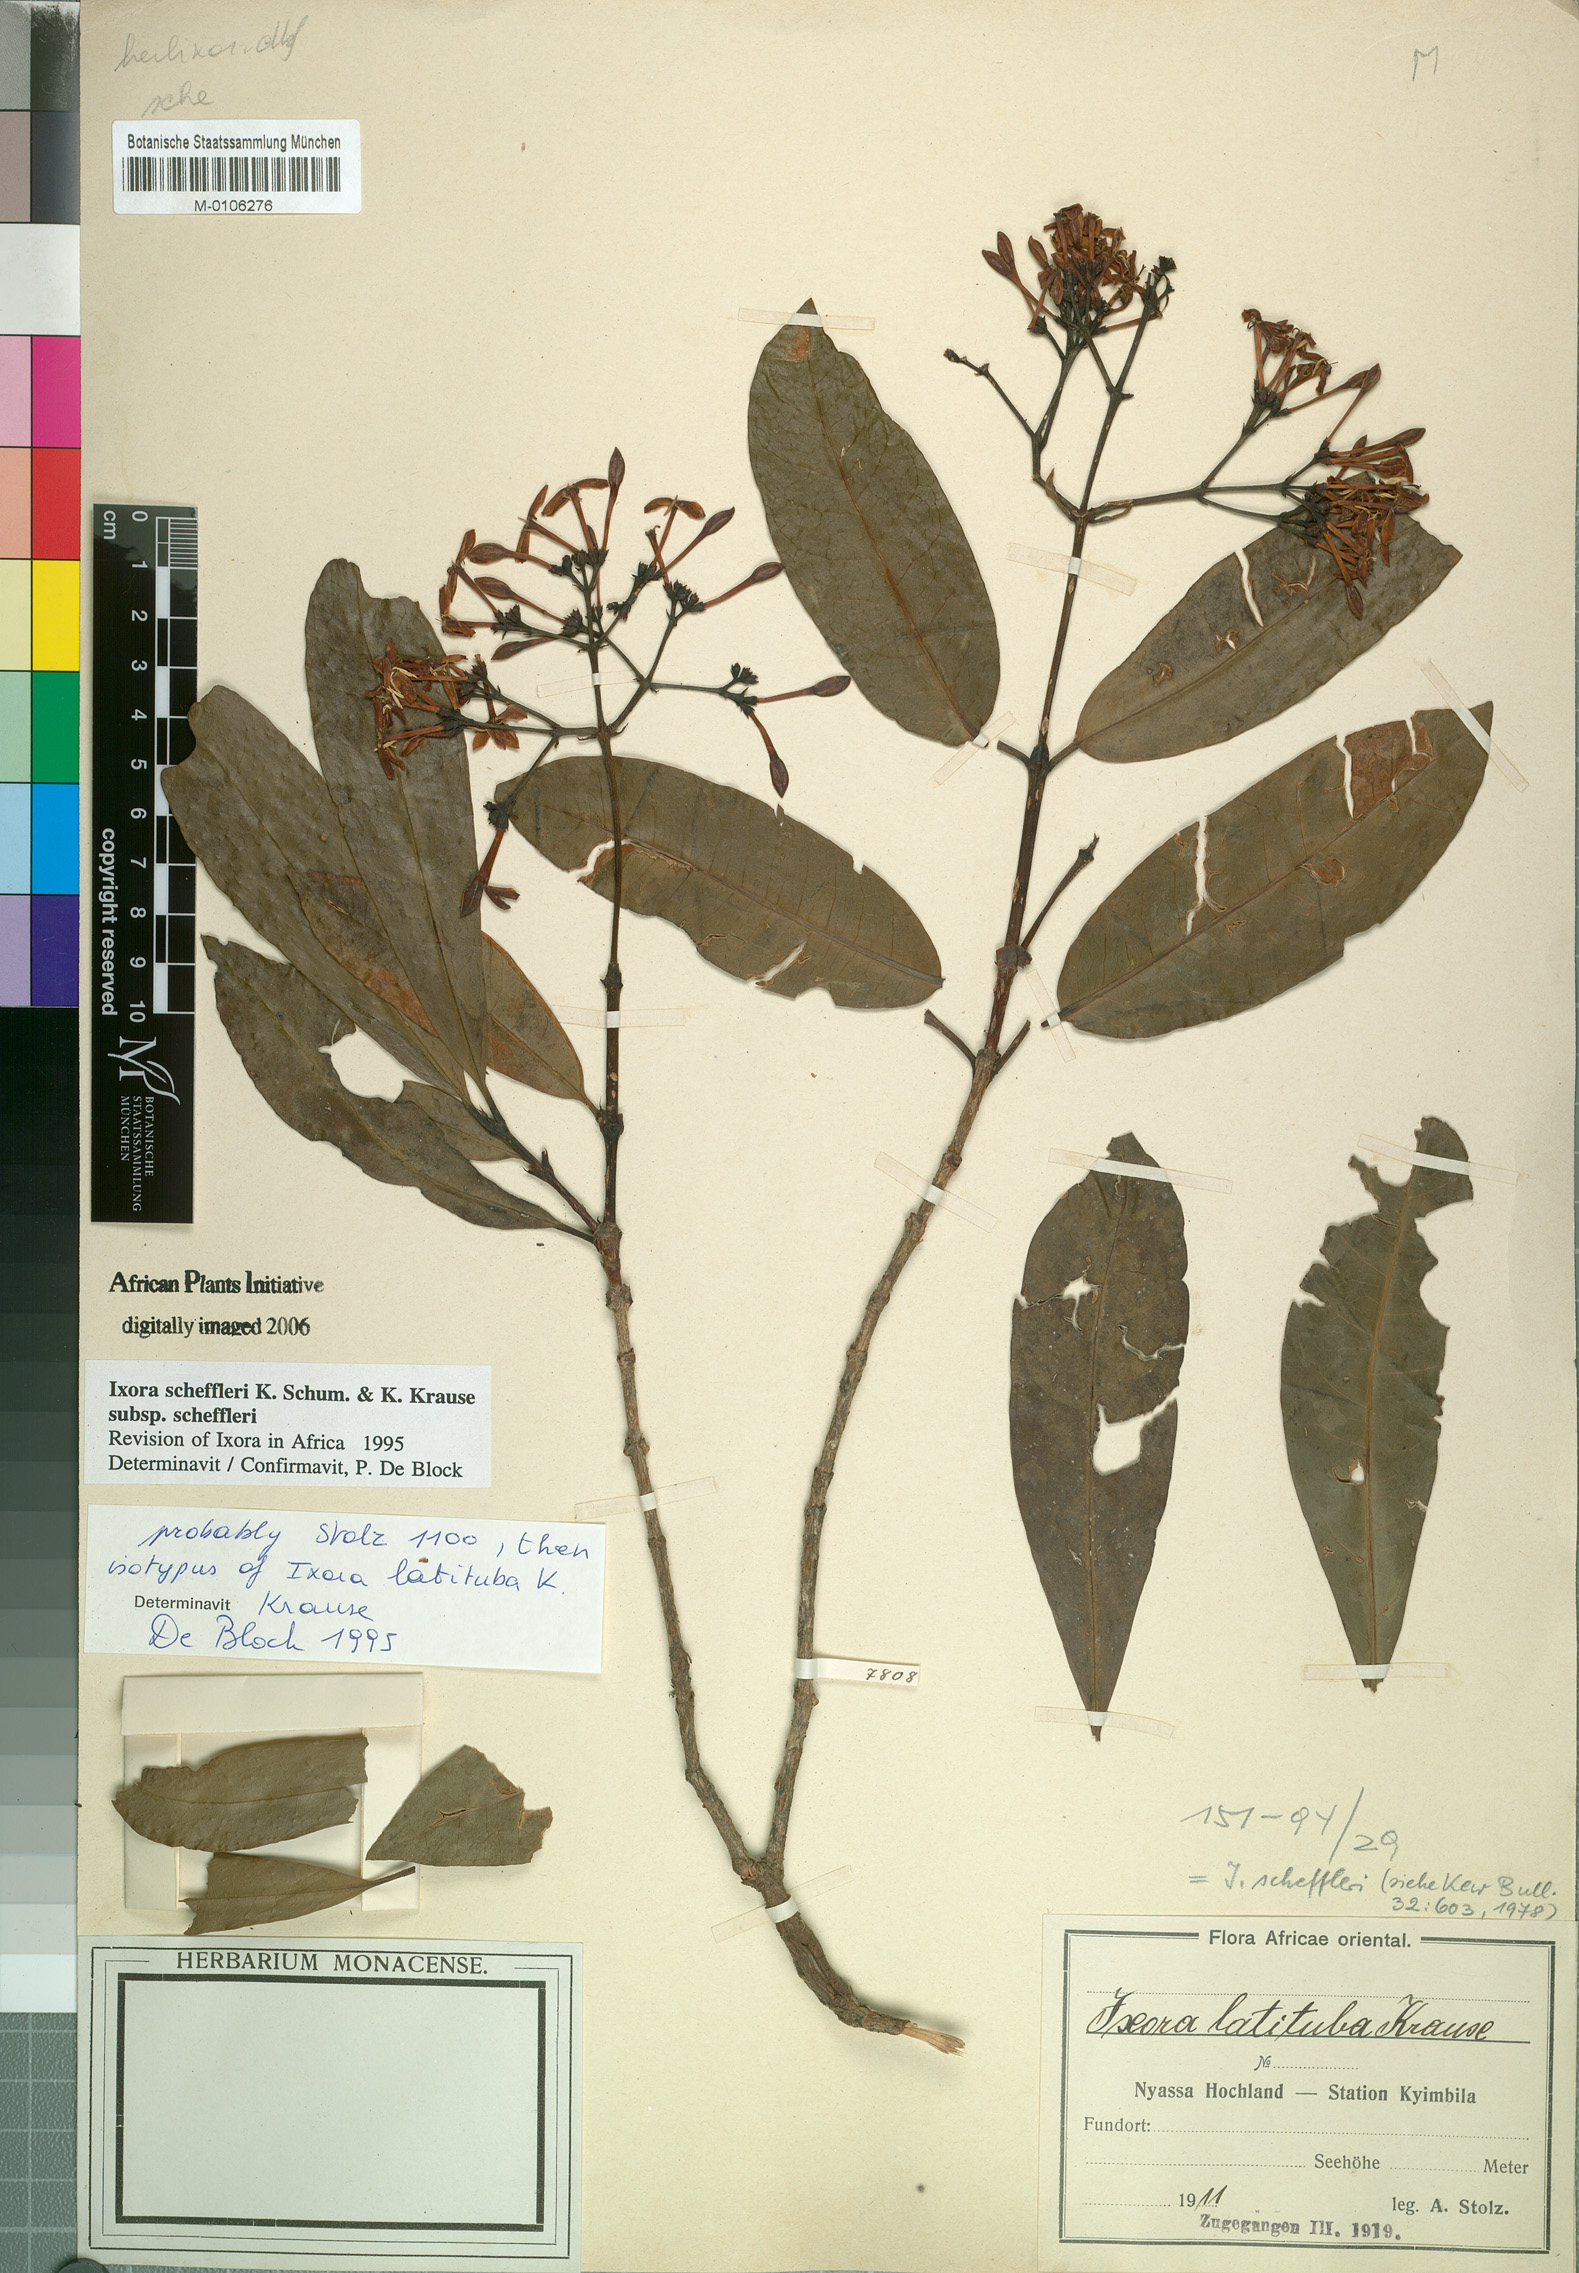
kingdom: Plantae
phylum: Tracheophyta
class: Magnoliopsida
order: Gentianales
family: Rubiaceae
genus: Ixora
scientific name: Ixora scheffleri
